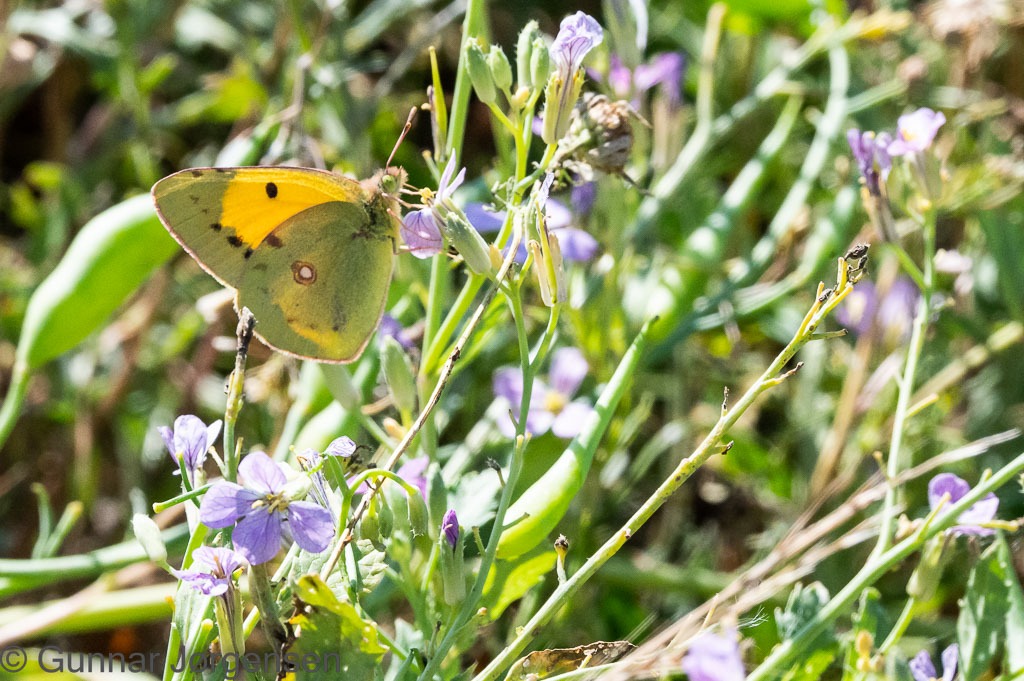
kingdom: Animalia
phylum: Arthropoda
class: Insecta
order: Lepidoptera
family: Pieridae
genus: Colias
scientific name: Colias croceus
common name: Orange høsommerfugl
